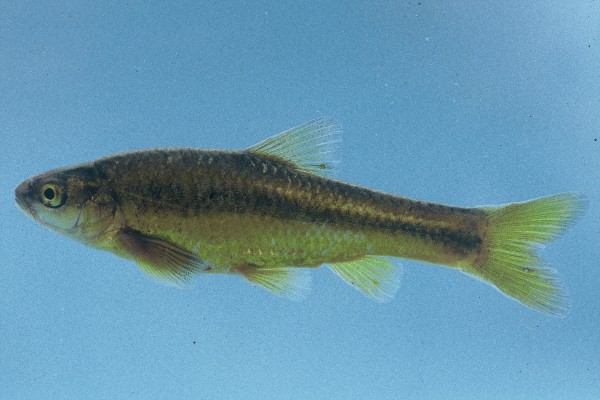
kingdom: Animalia
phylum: Chordata
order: Cypriniformes
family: Cyprinidae
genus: Enteromius
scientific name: Enteromius anoplus
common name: Chubbyhead barb
